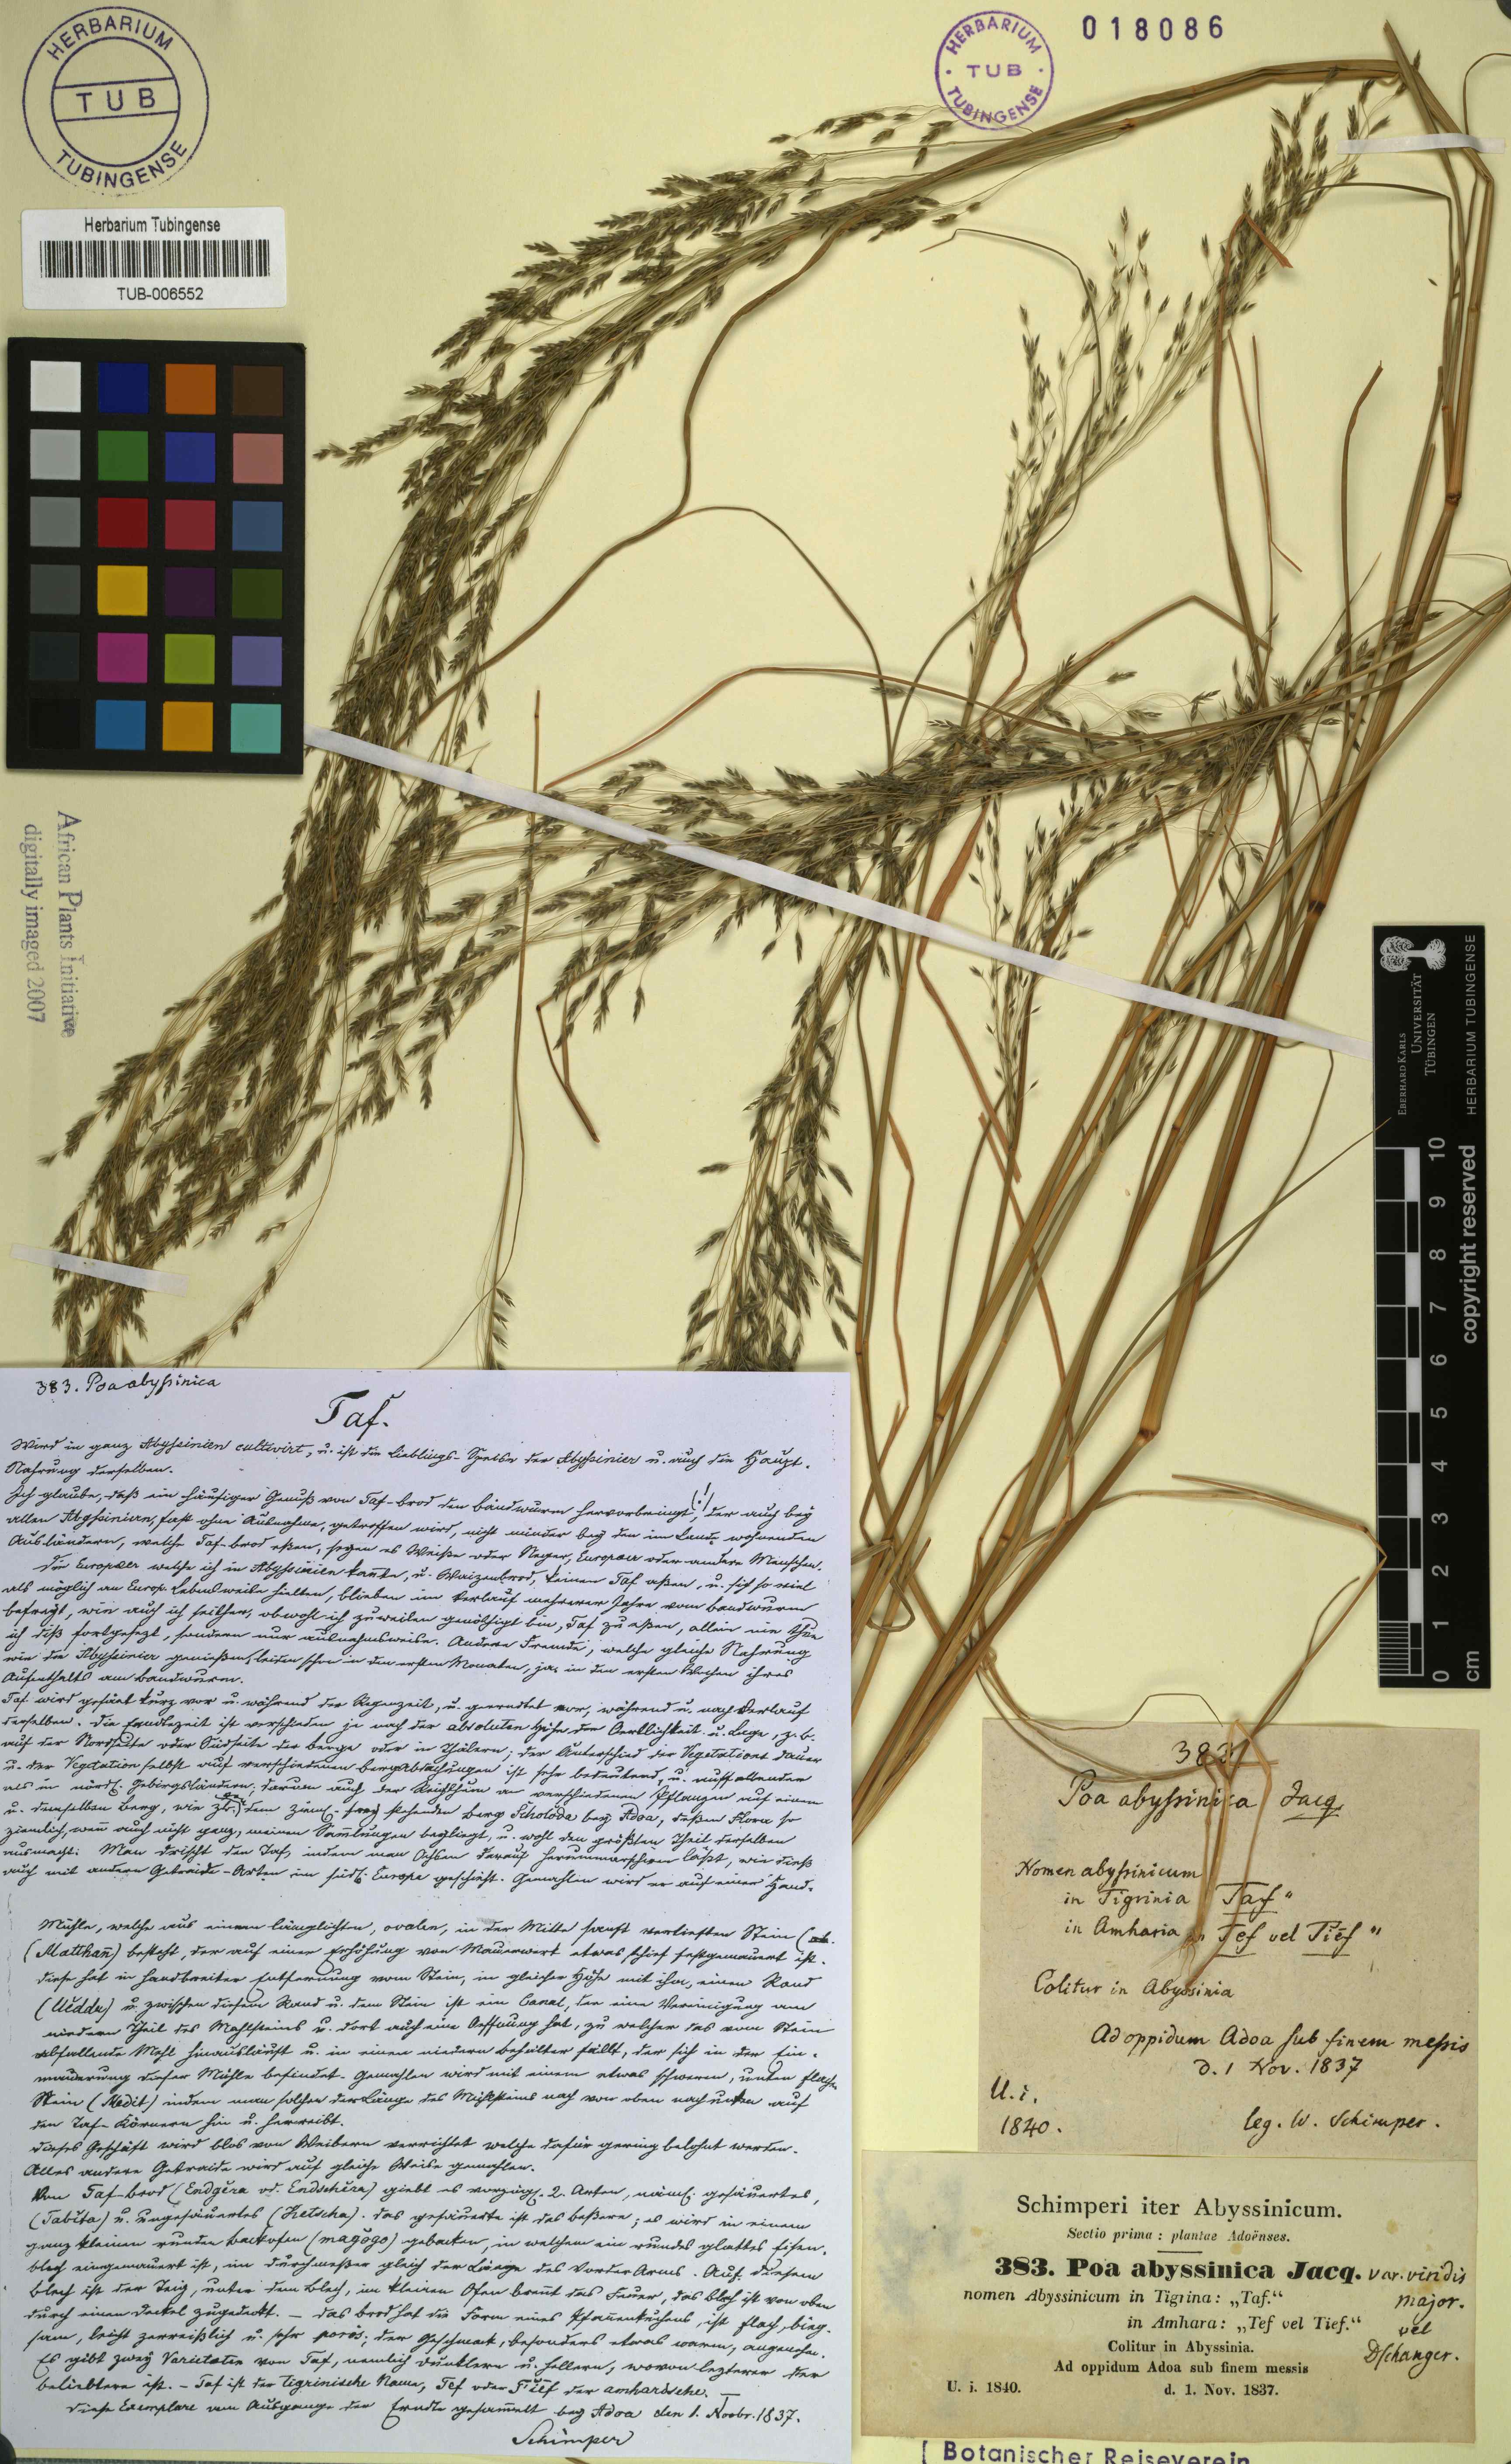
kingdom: Plantae
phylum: Tracheophyta
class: Liliopsida
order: Poales
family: Poaceae
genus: Eragrostis
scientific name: Eragrostis tef
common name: Teff
